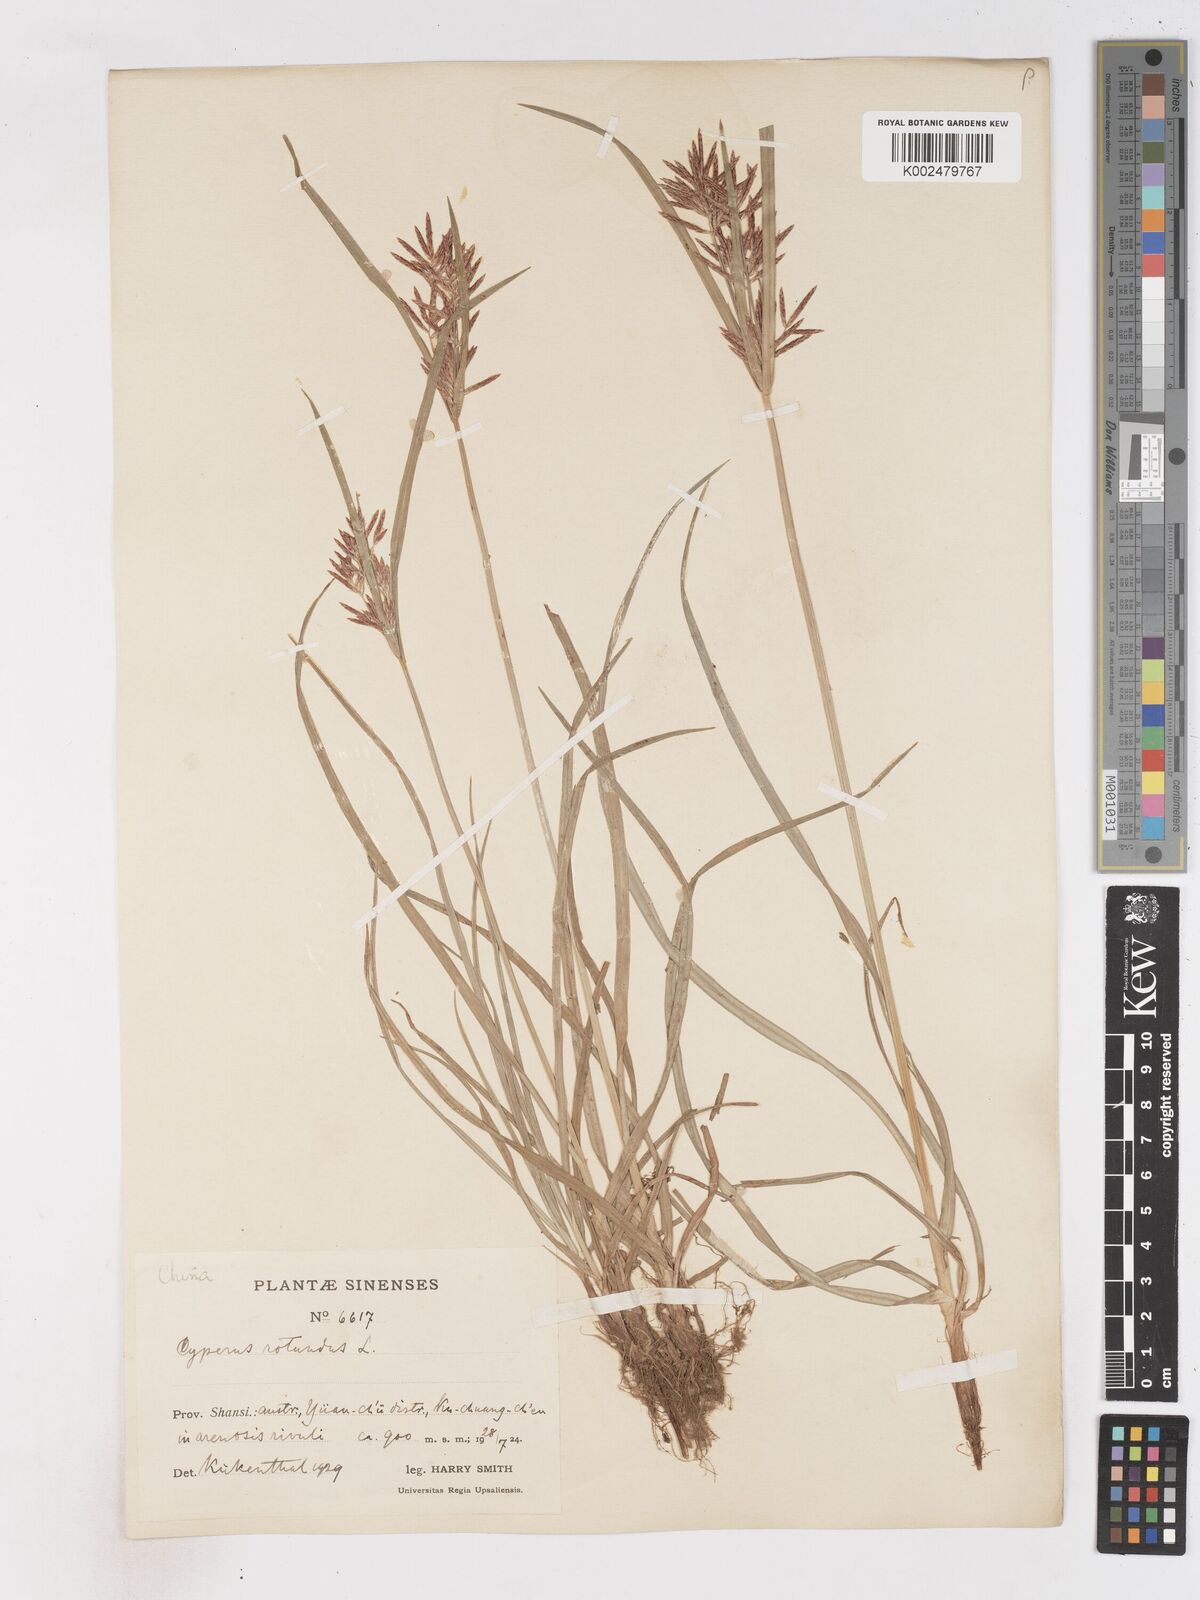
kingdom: Plantae
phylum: Tracheophyta
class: Liliopsida
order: Poales
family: Cyperaceae
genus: Cyperus
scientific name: Cyperus rotundus
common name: Nutgrass
